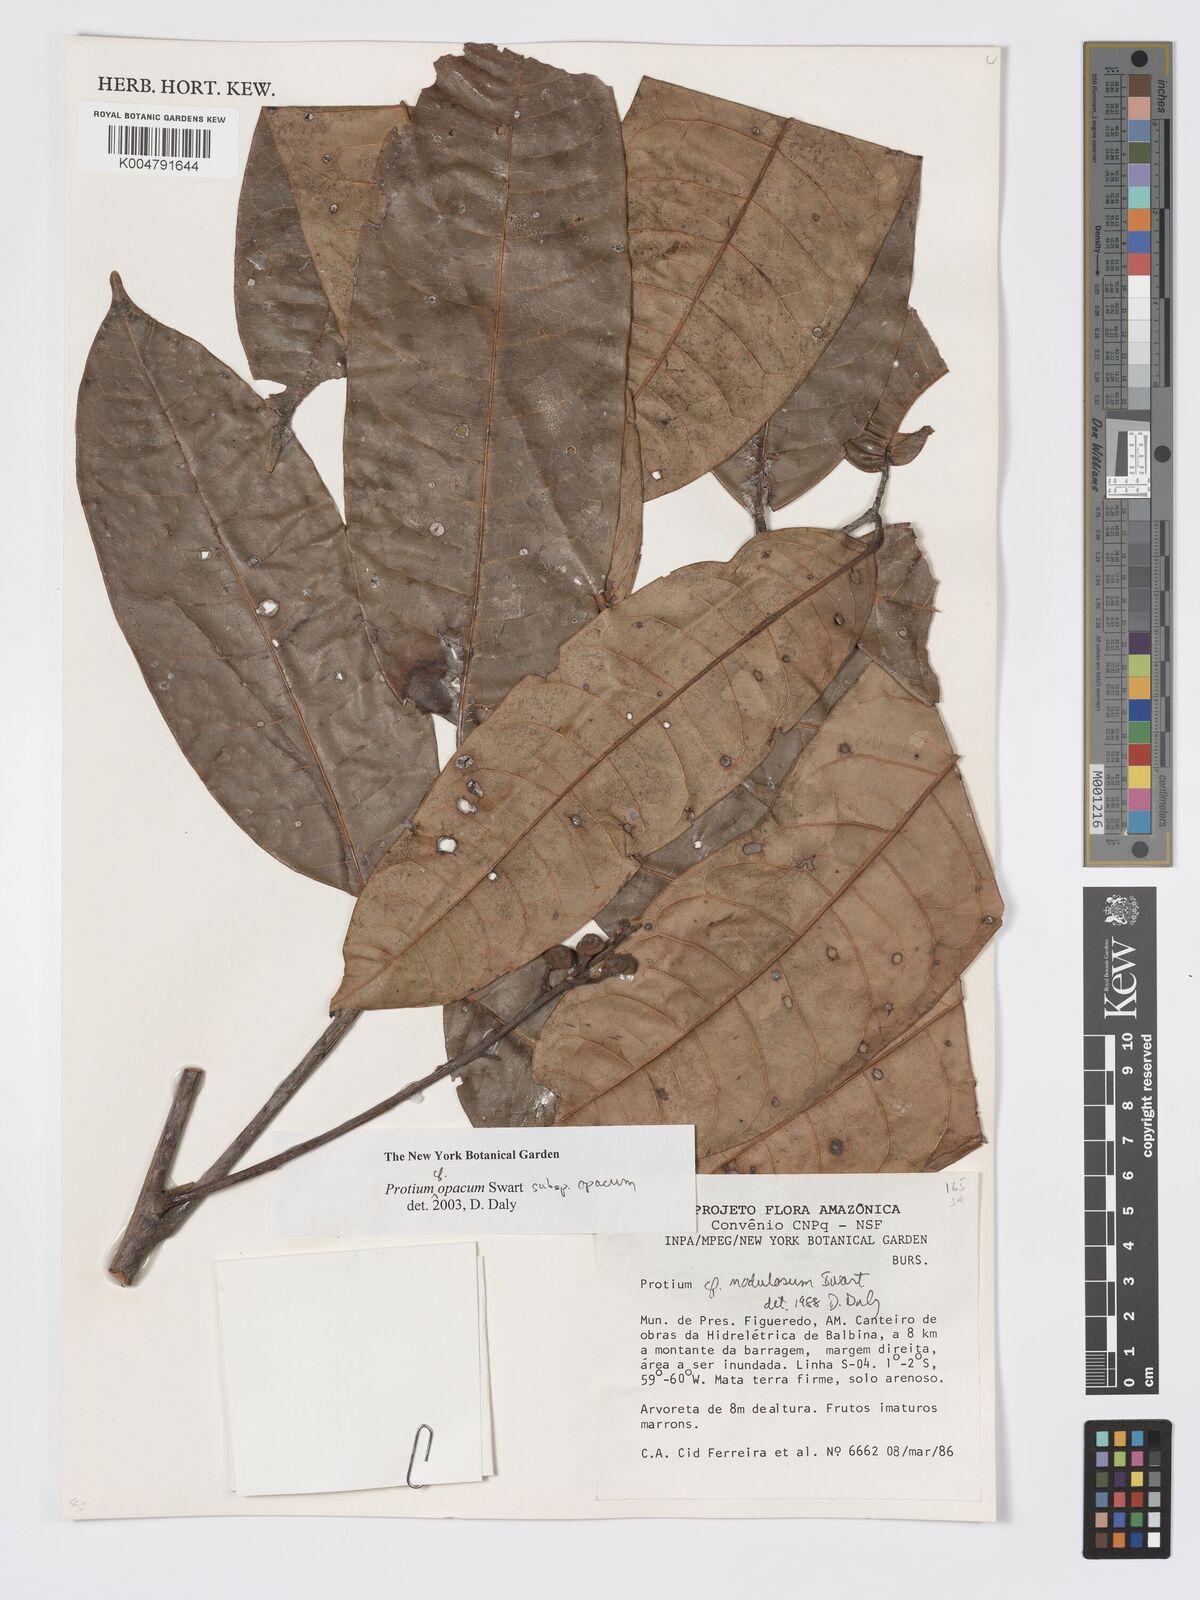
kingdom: Plantae
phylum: Tracheophyta
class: Magnoliopsida
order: Sapindales
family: Burseraceae
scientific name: Burseraceae
